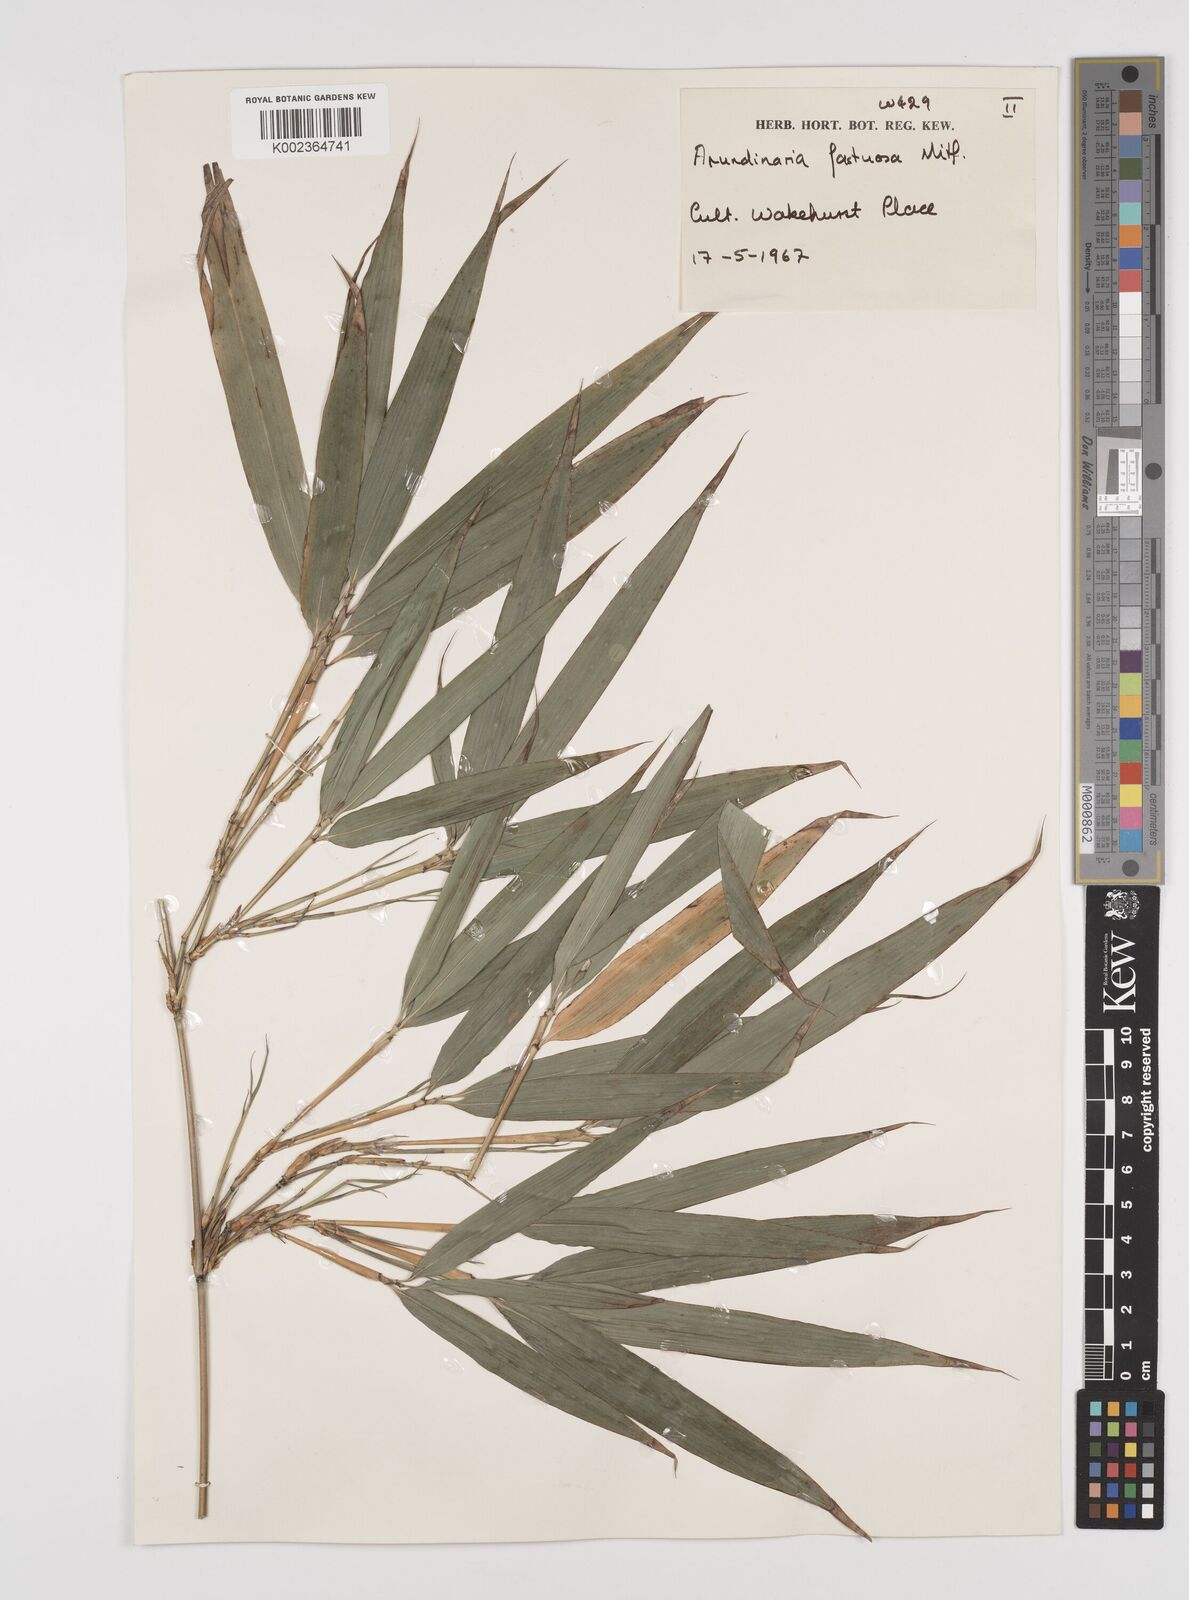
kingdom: Plantae
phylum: Tracheophyta
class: Liliopsida
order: Poales
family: Poaceae
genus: Semiarundinaria
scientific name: Semiarundinaria fastuosa
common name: Narihira bamboo
